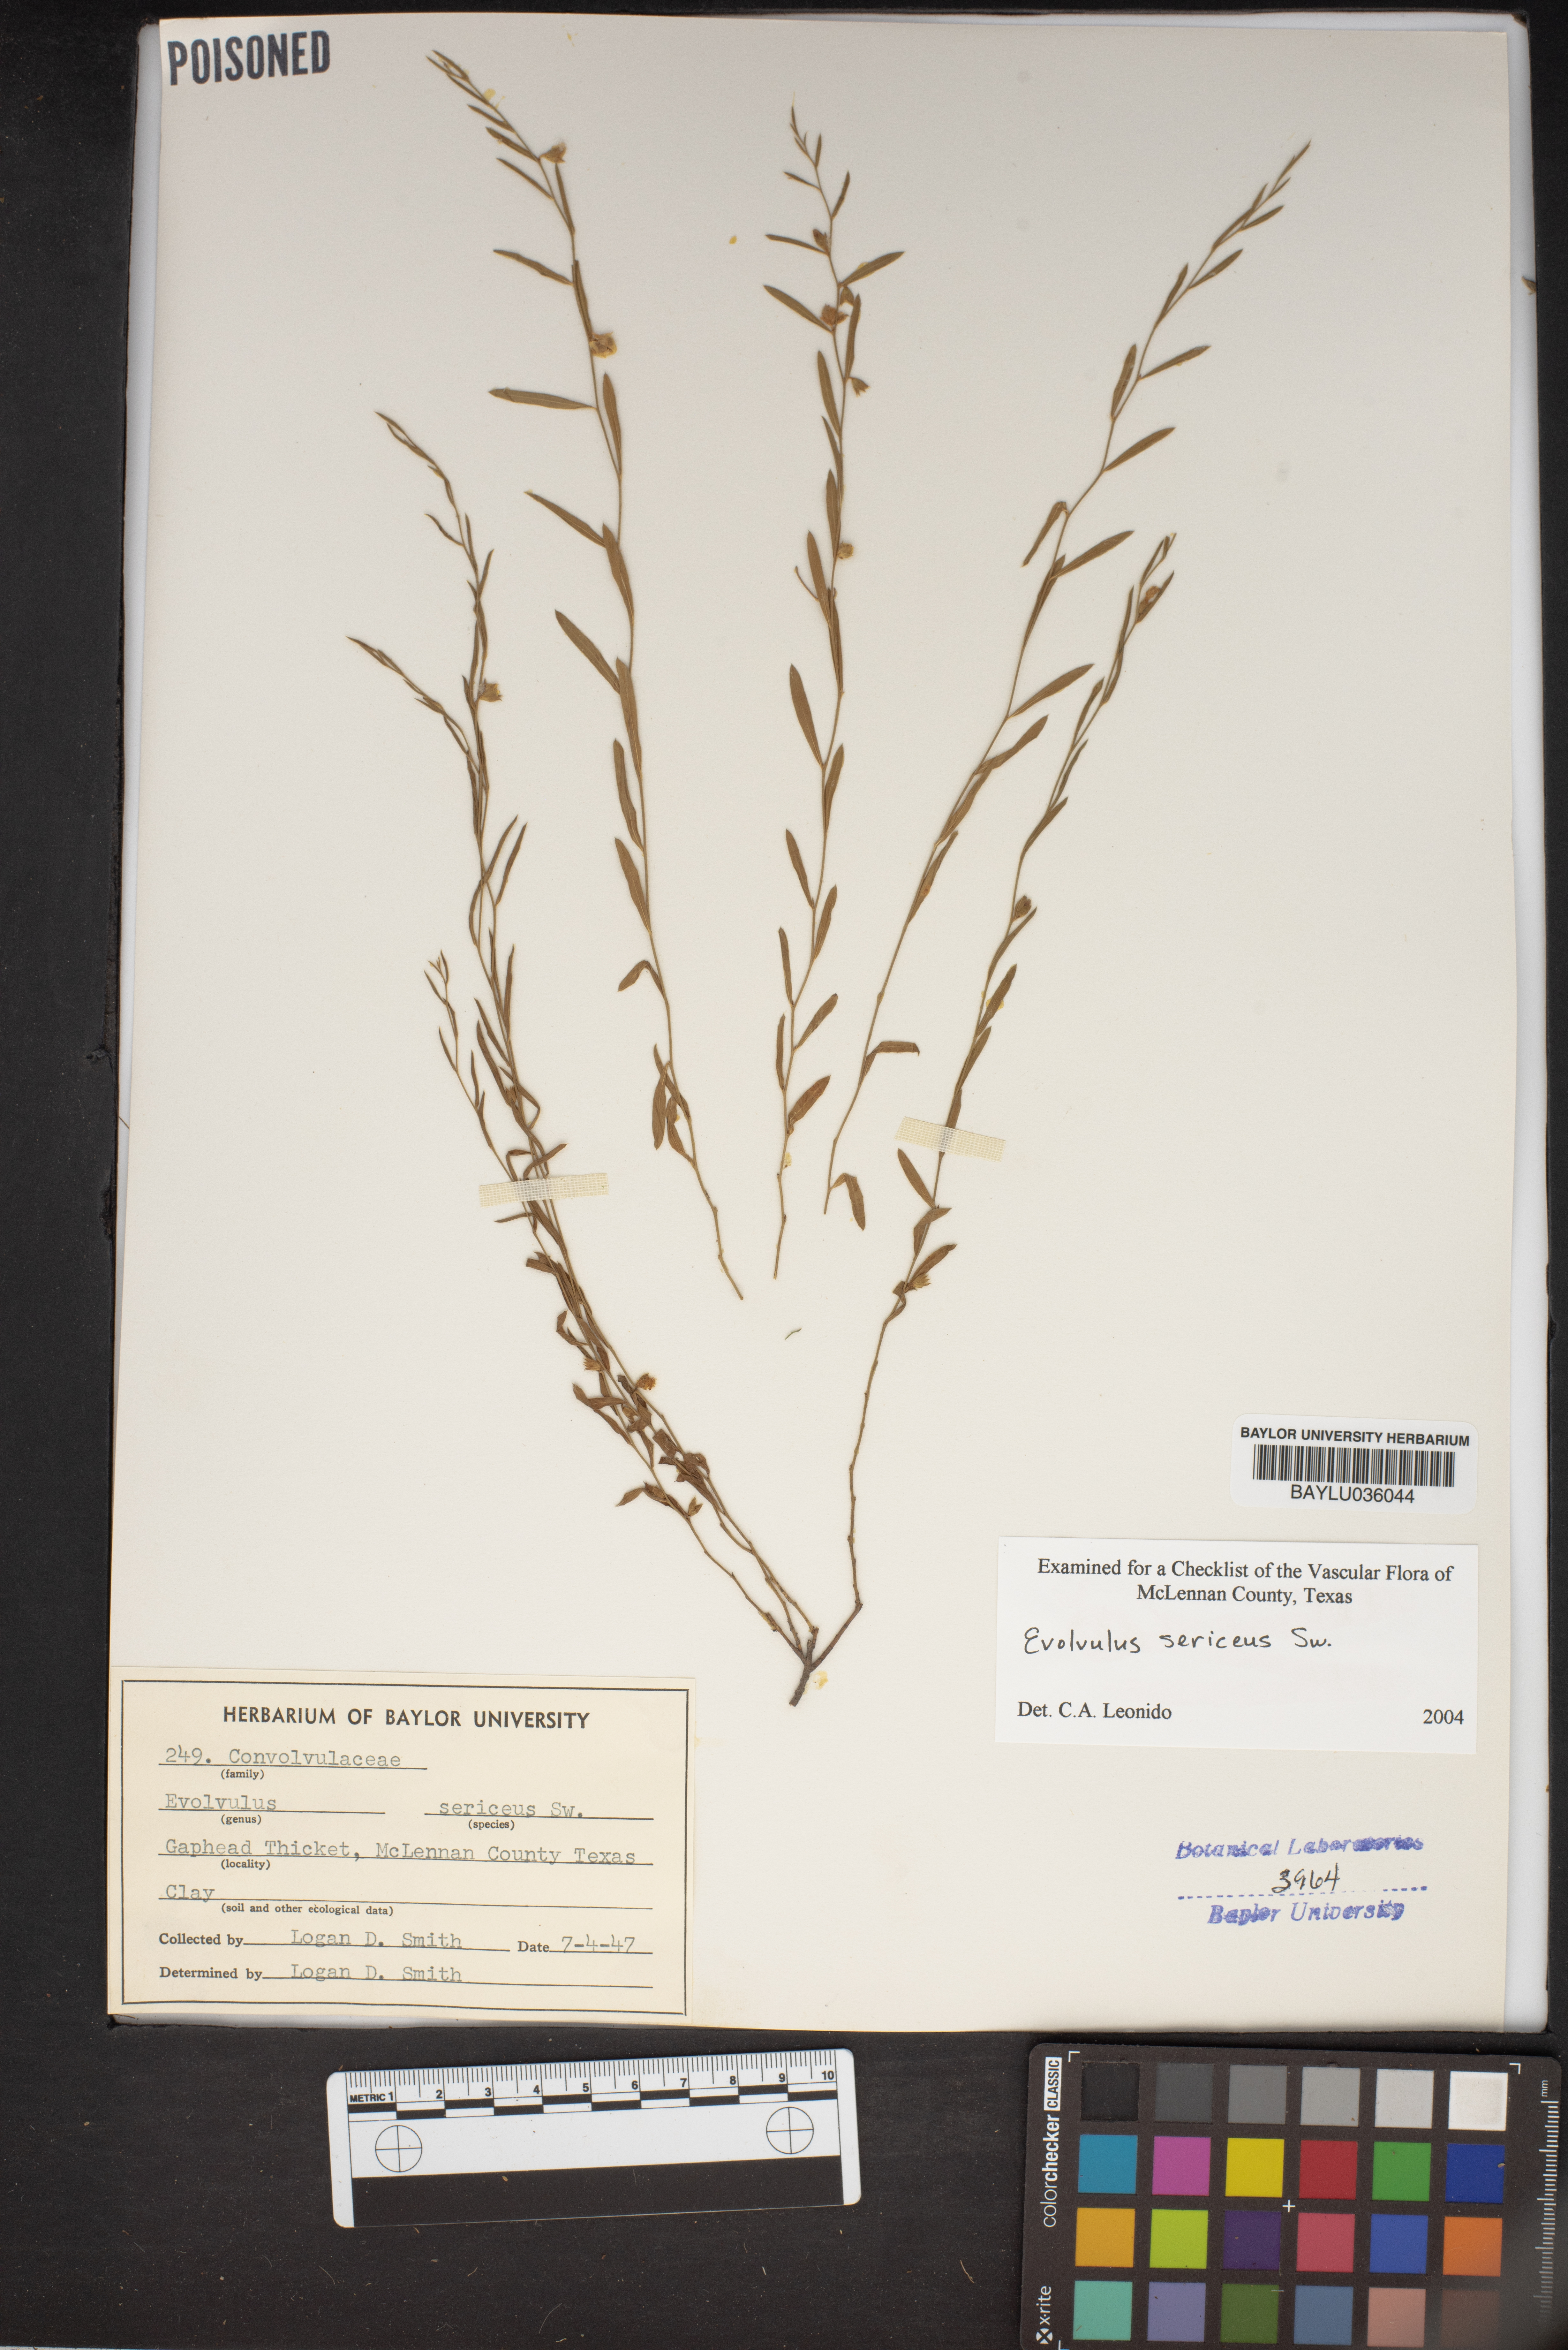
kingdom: Plantae
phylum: Tracheophyta
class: Magnoliopsida
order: Solanales
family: Convolvulaceae
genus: Evolvulus
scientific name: Evolvulus sericeus
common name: Blue dots
